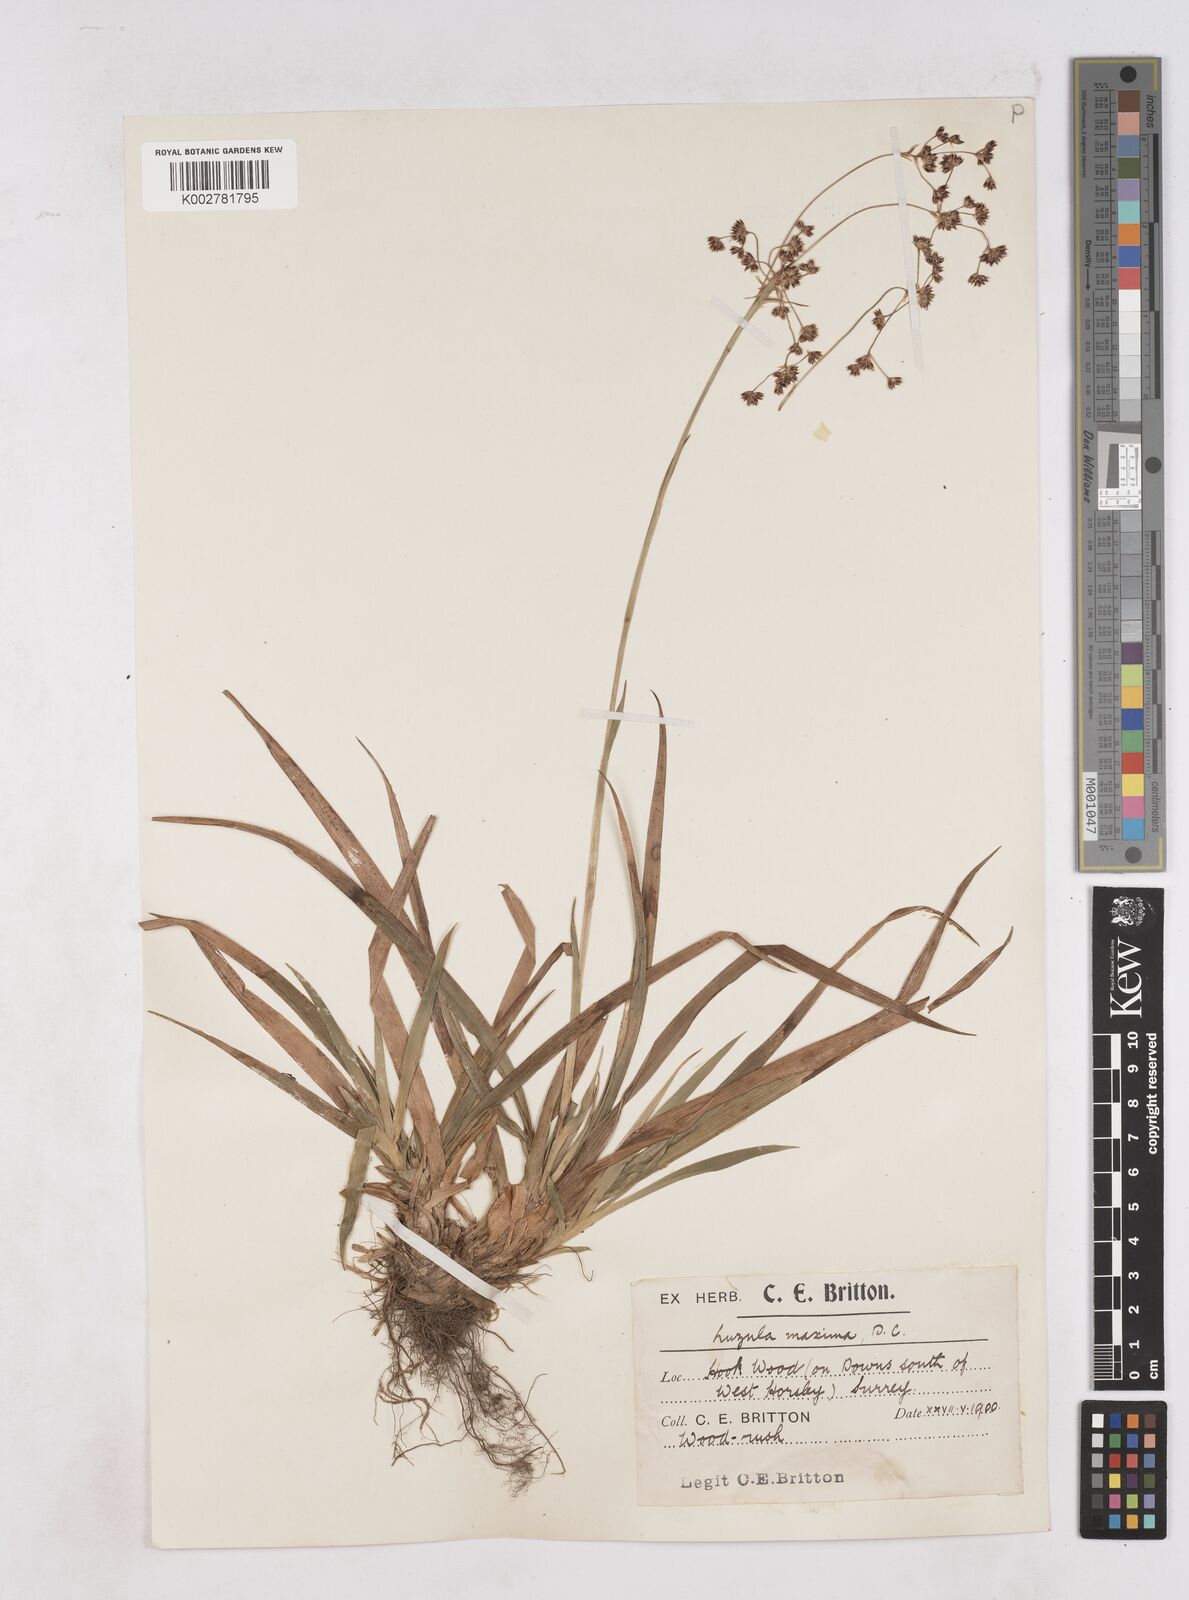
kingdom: Plantae
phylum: Tracheophyta
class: Liliopsida
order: Poales
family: Juncaceae
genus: Luzula
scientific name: Luzula sylvatica
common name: Great wood-rush
